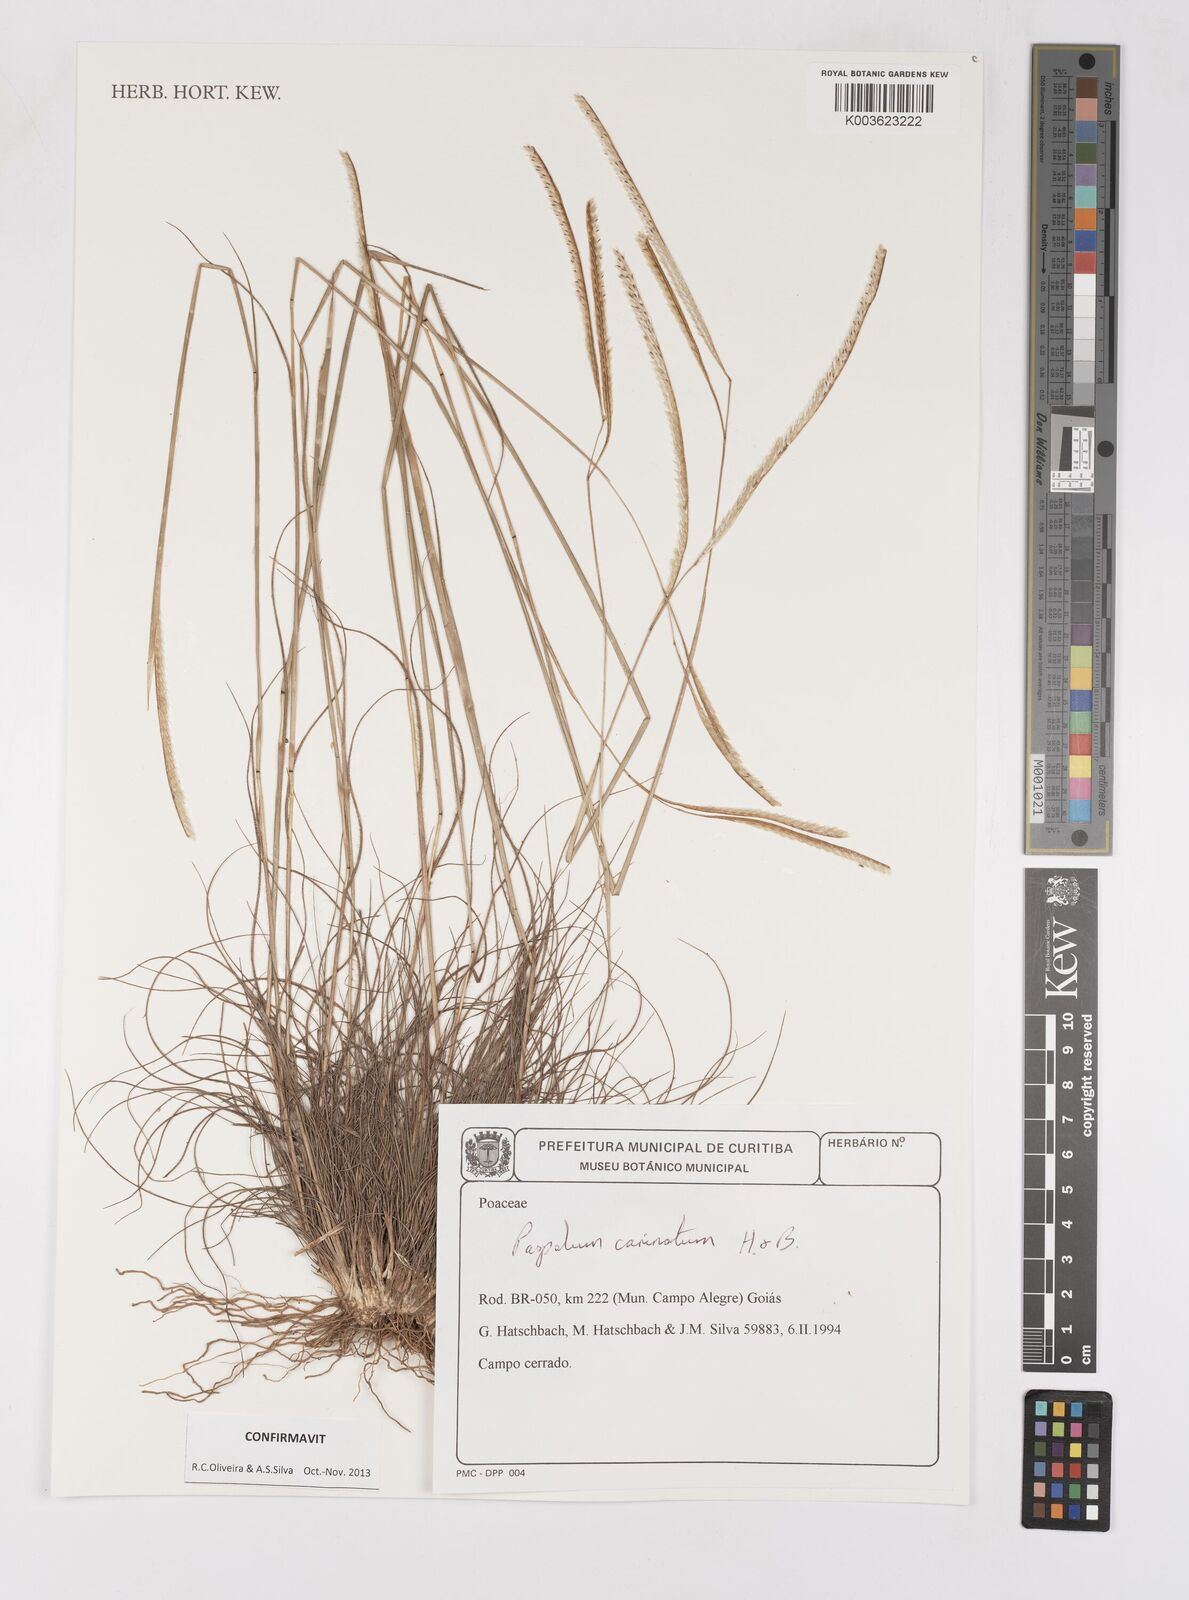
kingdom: Plantae
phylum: Tracheophyta
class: Liliopsida
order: Poales
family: Poaceae
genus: Paspalum
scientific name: Paspalum carinatum
